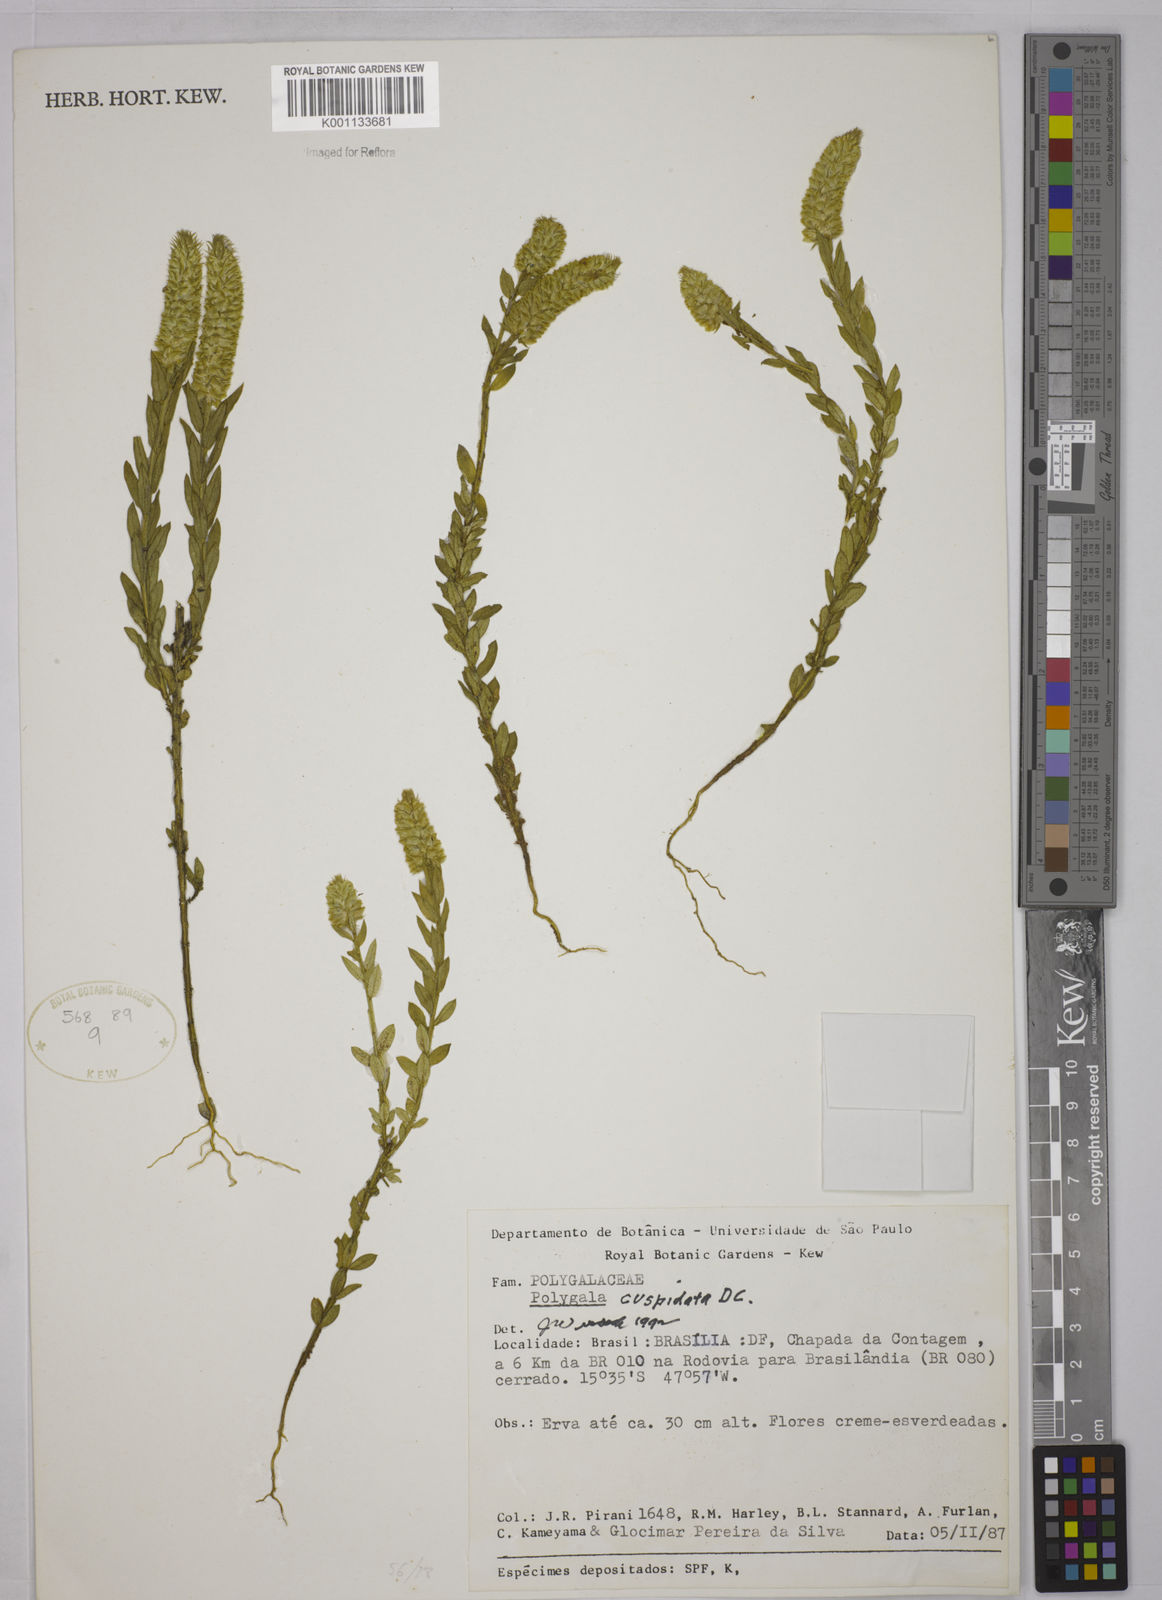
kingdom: Plantae
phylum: Tracheophyta
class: Magnoliopsida
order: Fabales
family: Polygalaceae
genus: Polygala
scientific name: Polygala cuspidata
